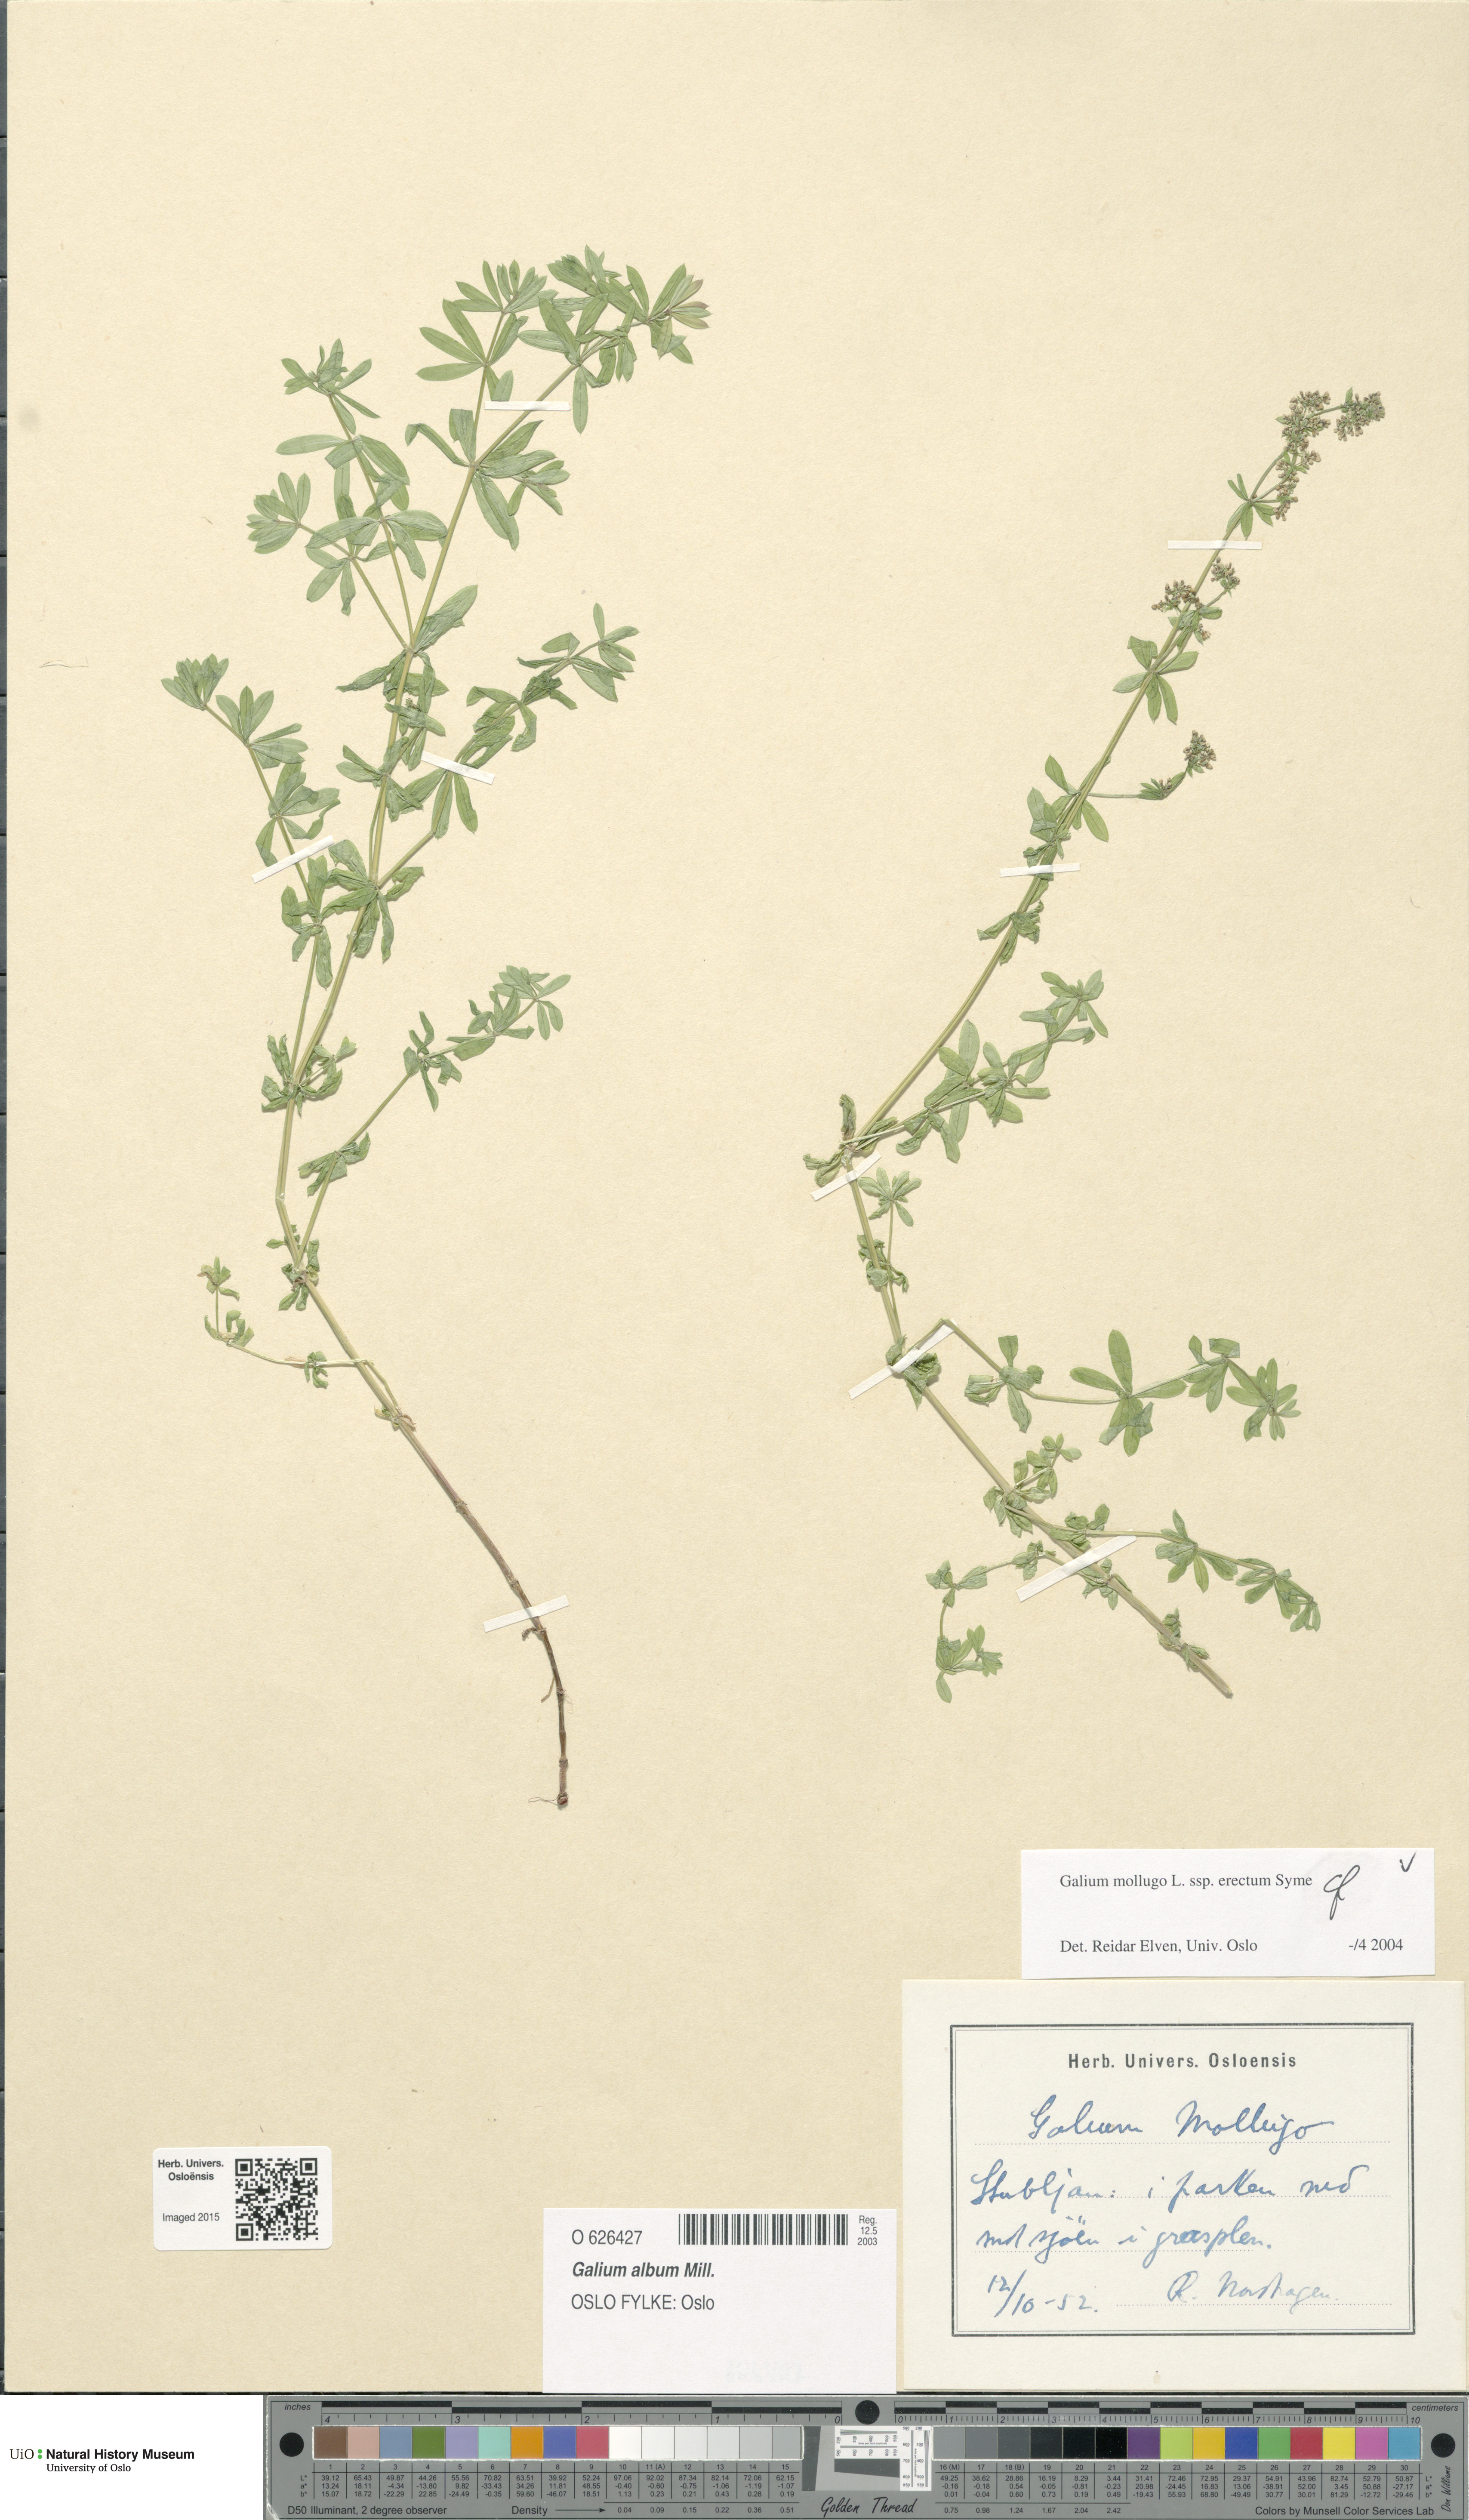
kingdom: Plantae
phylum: Tracheophyta
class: Magnoliopsida
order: Gentianales
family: Rubiaceae
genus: Galium
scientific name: Galium album
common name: White bedstraw
